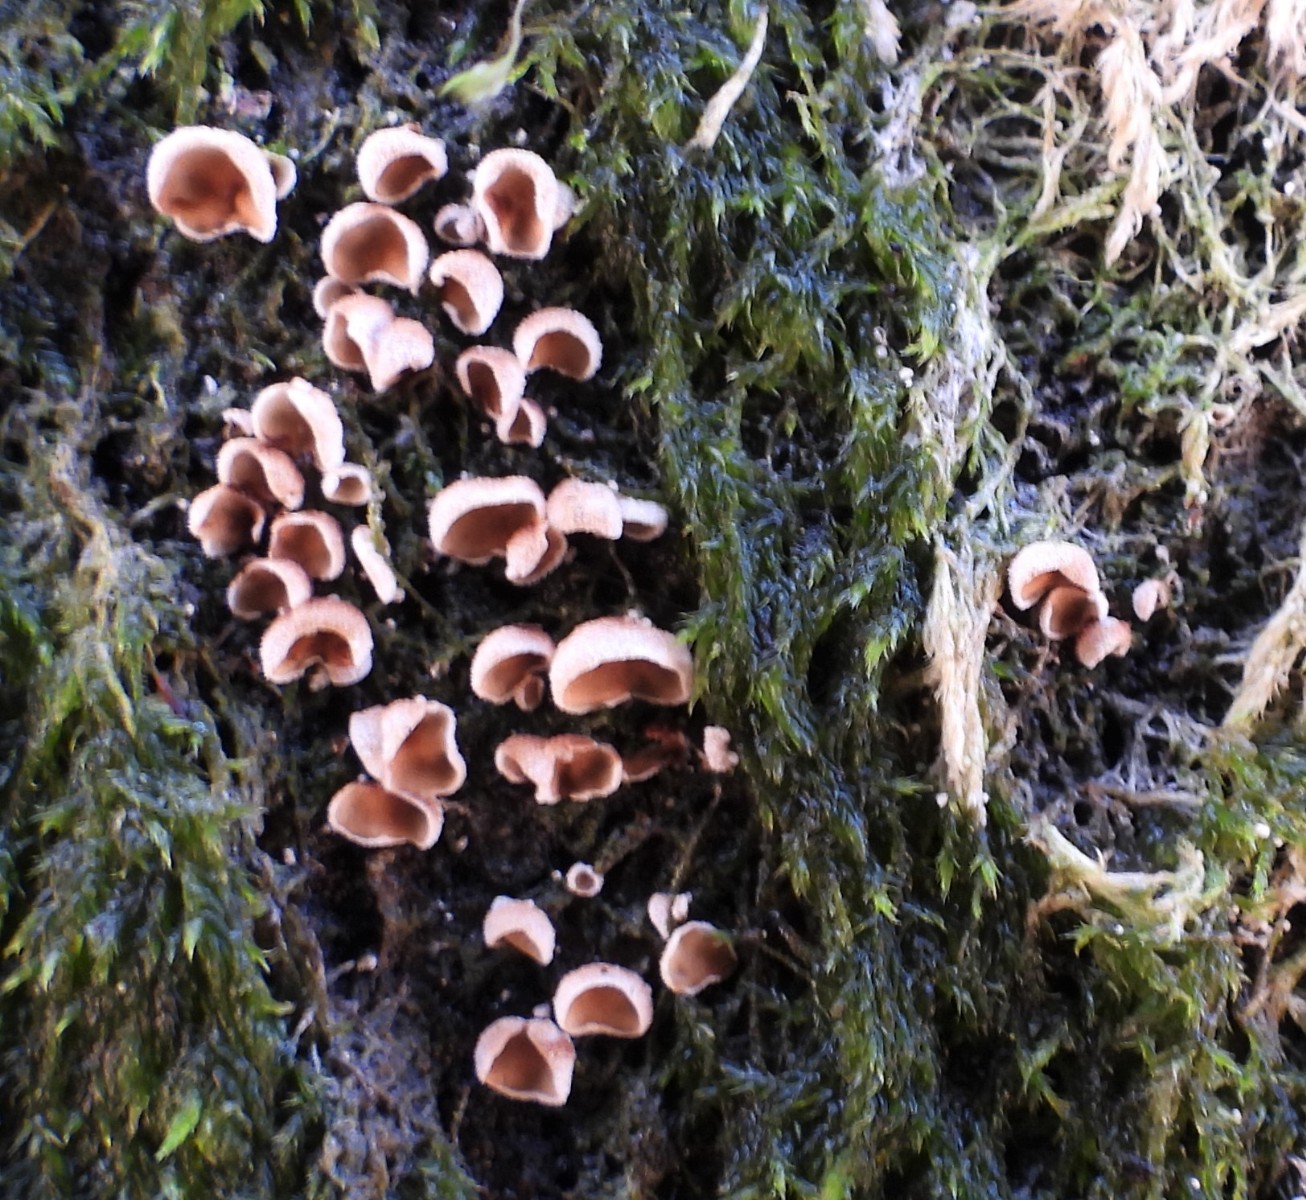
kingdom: Fungi
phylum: Basidiomycota
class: Agaricomycetes
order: Agaricales
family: Chromocyphellaceae
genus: Chromocyphella
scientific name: Chromocyphella muscicola
